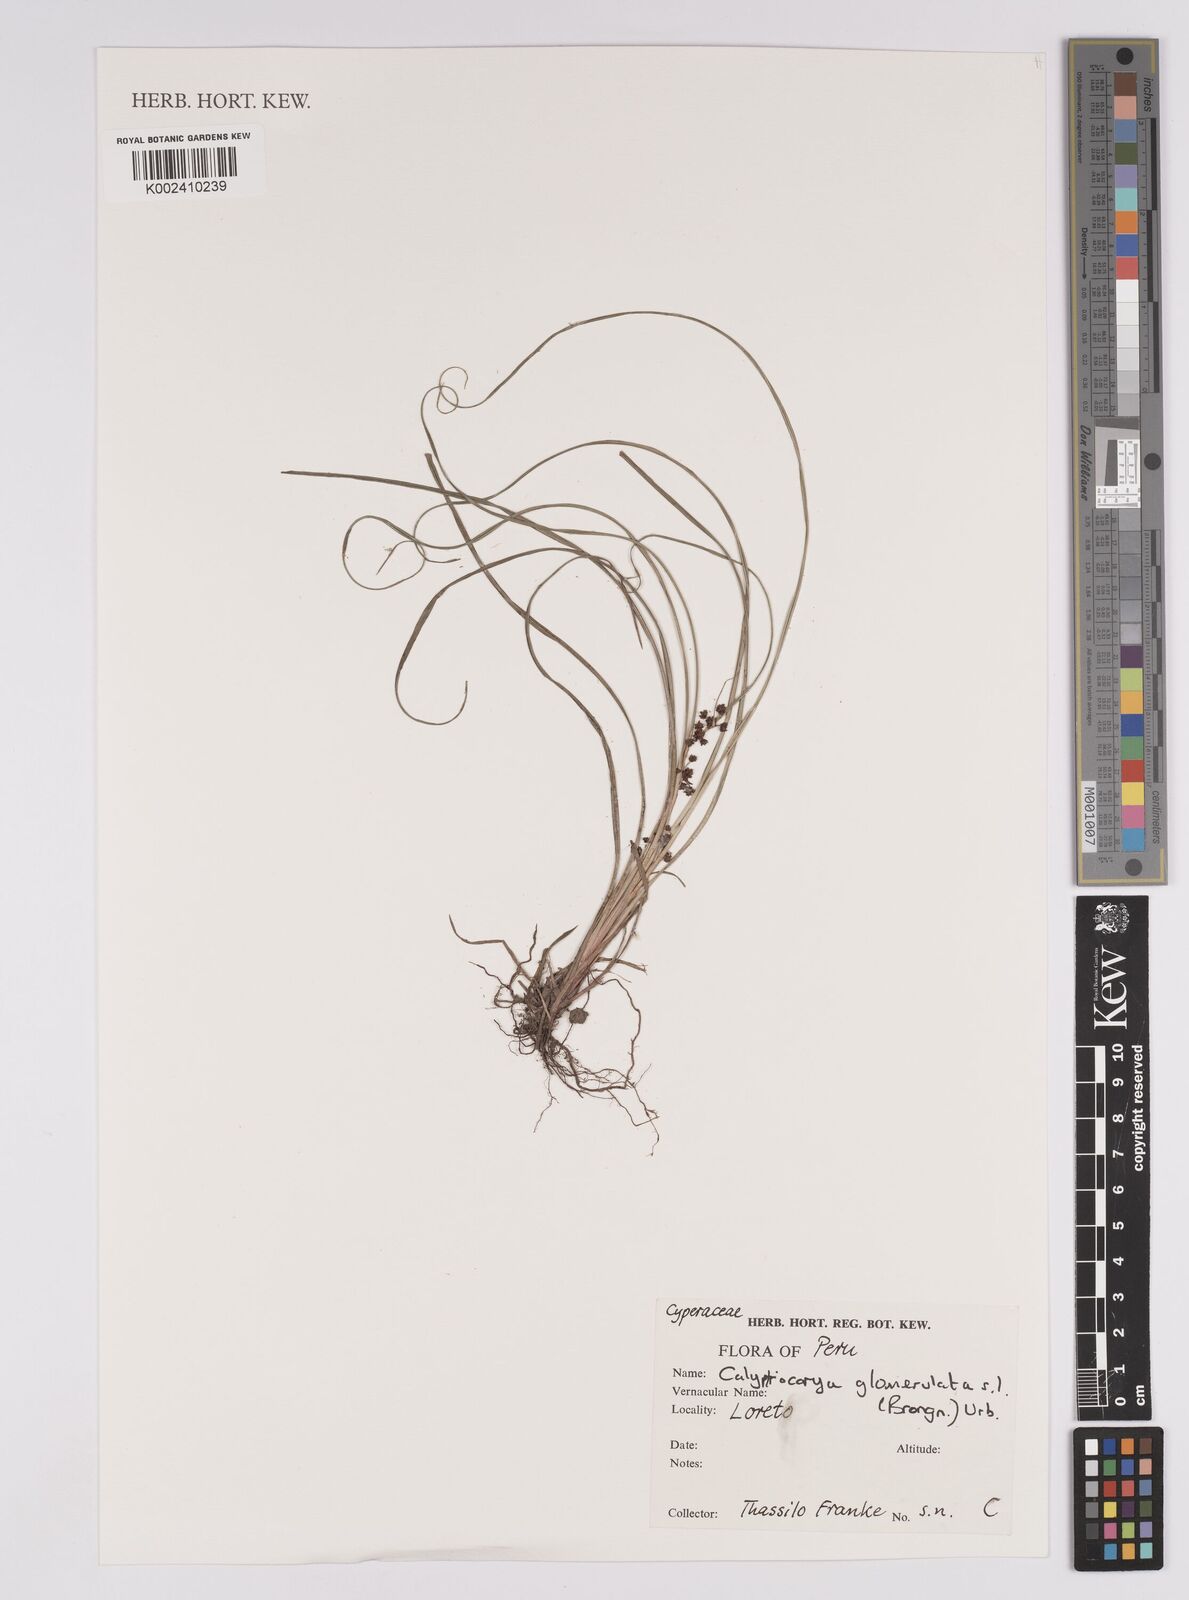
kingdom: Plantae
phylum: Tracheophyta
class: Liliopsida
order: Poales
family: Cyperaceae
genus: Calyptrocarya
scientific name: Calyptrocarya glomerulata
